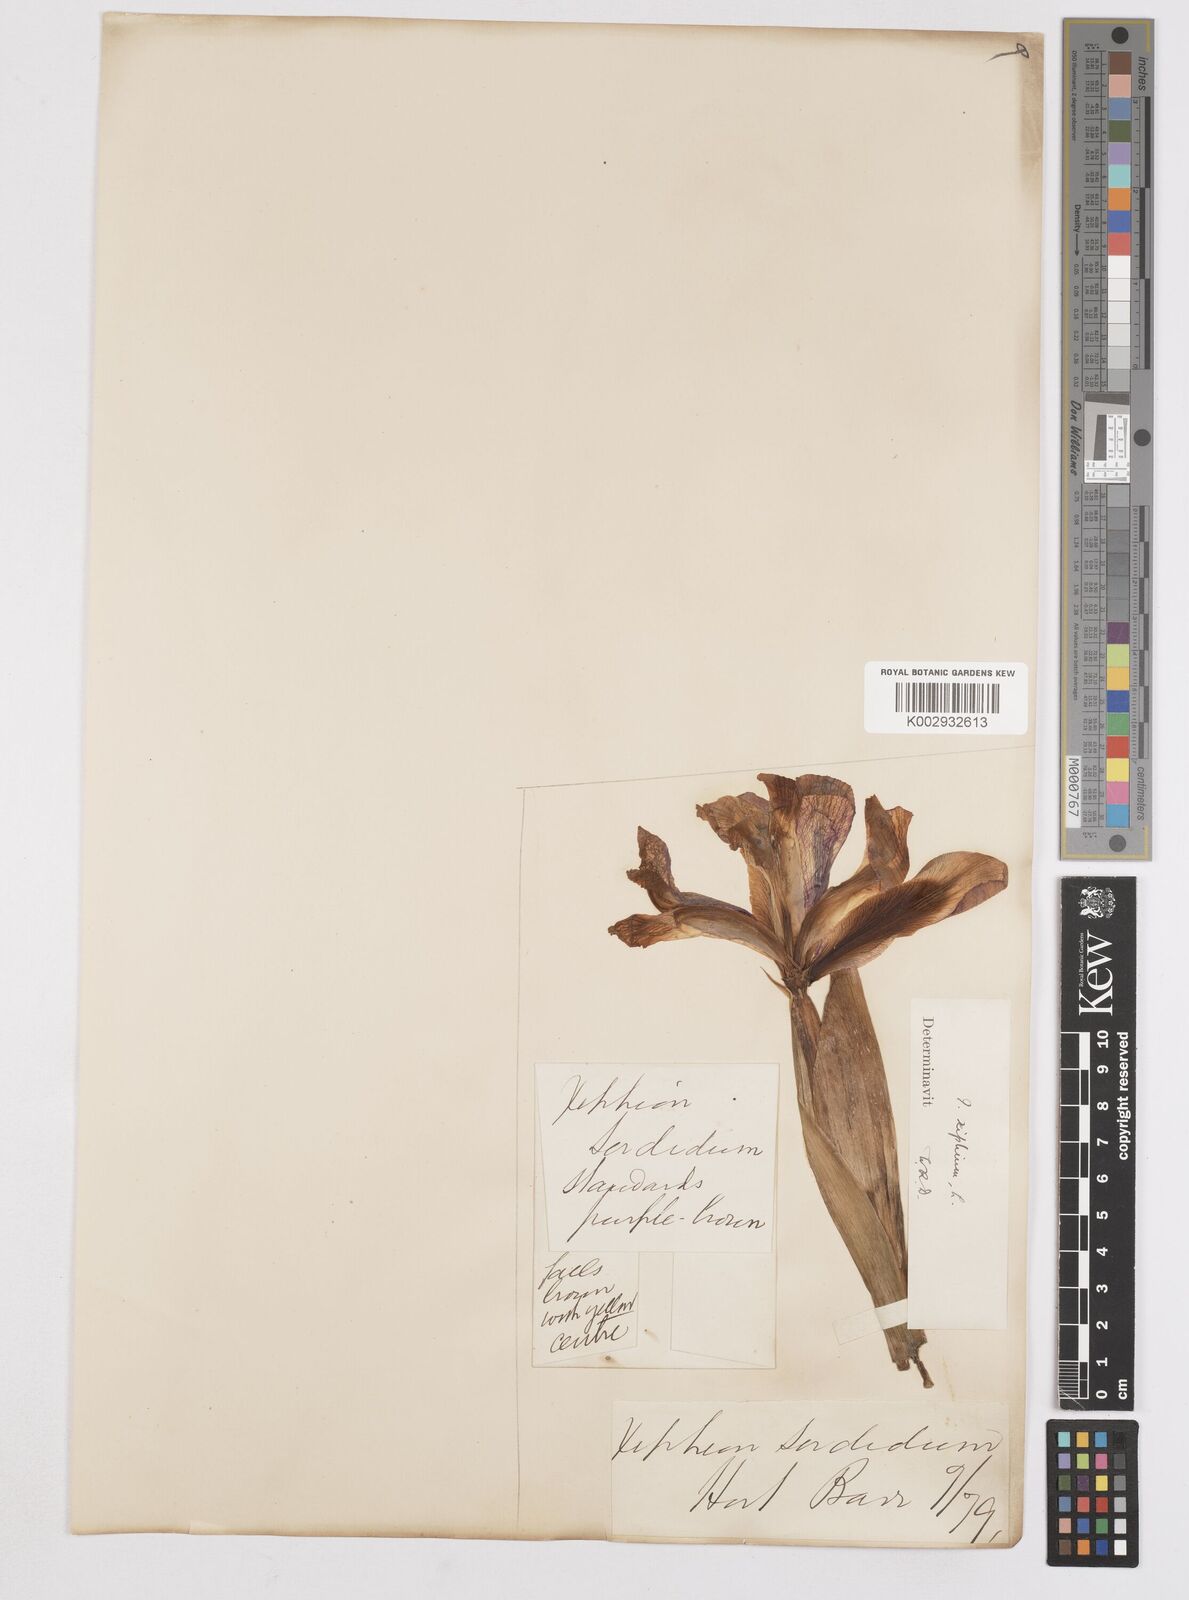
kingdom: Plantae
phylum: Tracheophyta
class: Liliopsida
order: Asparagales
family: Iridaceae
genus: Iris
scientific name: Iris xiphium
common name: Spanish iris
